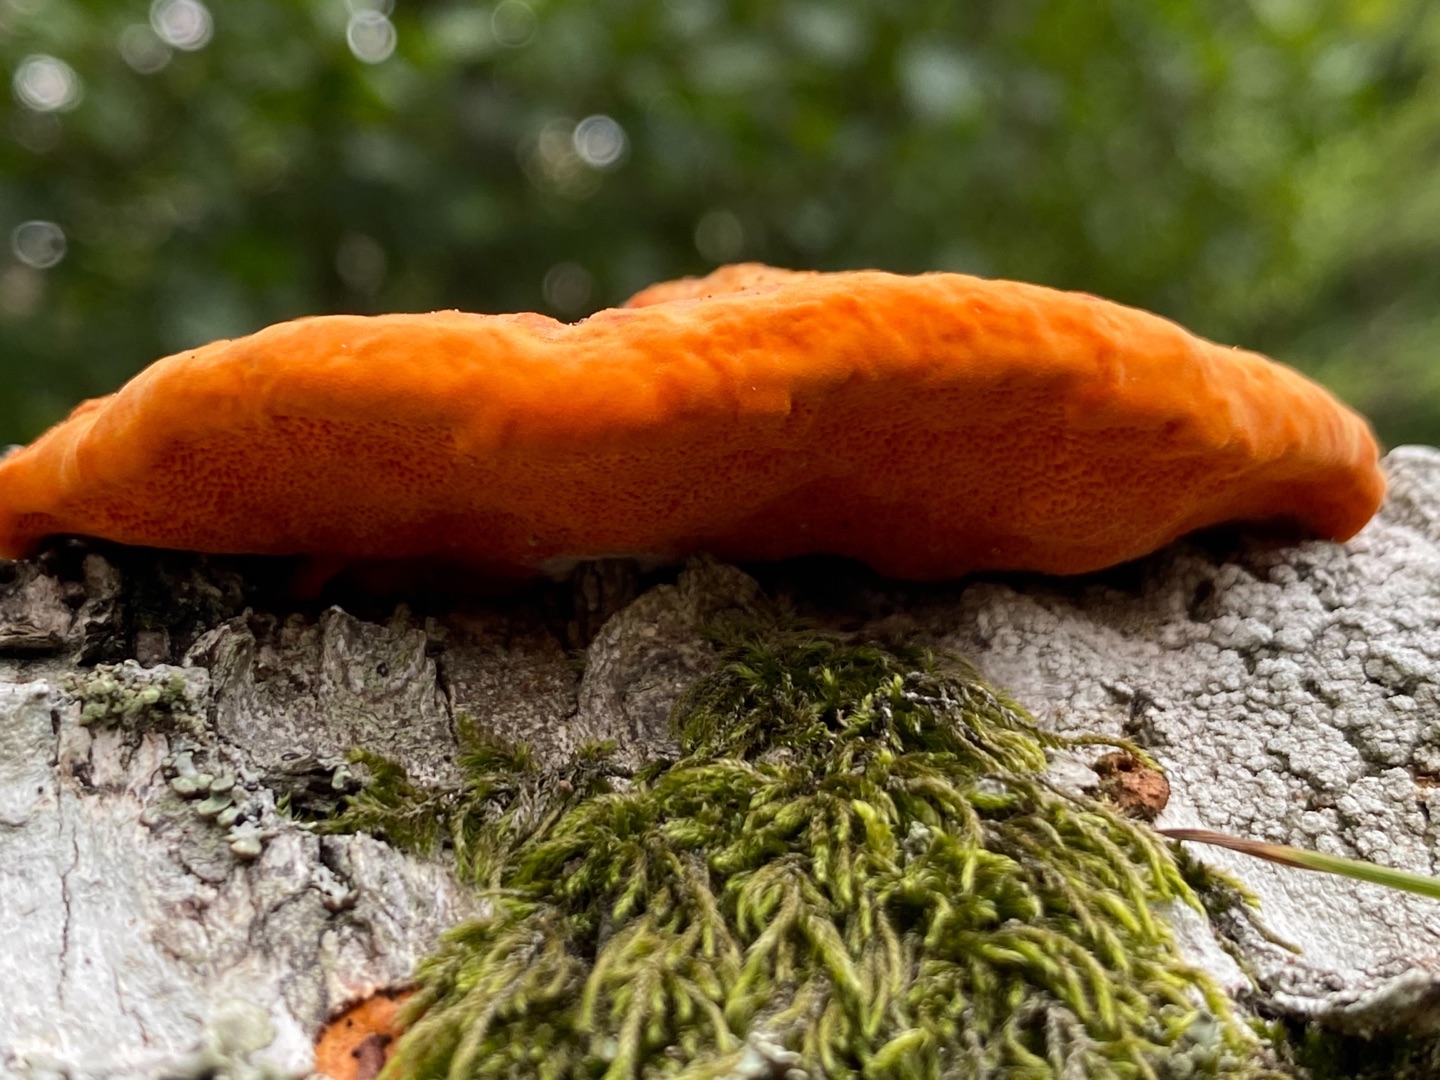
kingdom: Fungi
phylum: Basidiomycota
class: Agaricomycetes
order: Polyporales
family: Polyporaceae
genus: Pycnoporus
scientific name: Pycnoporus
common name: Cinnoberporesvamp
